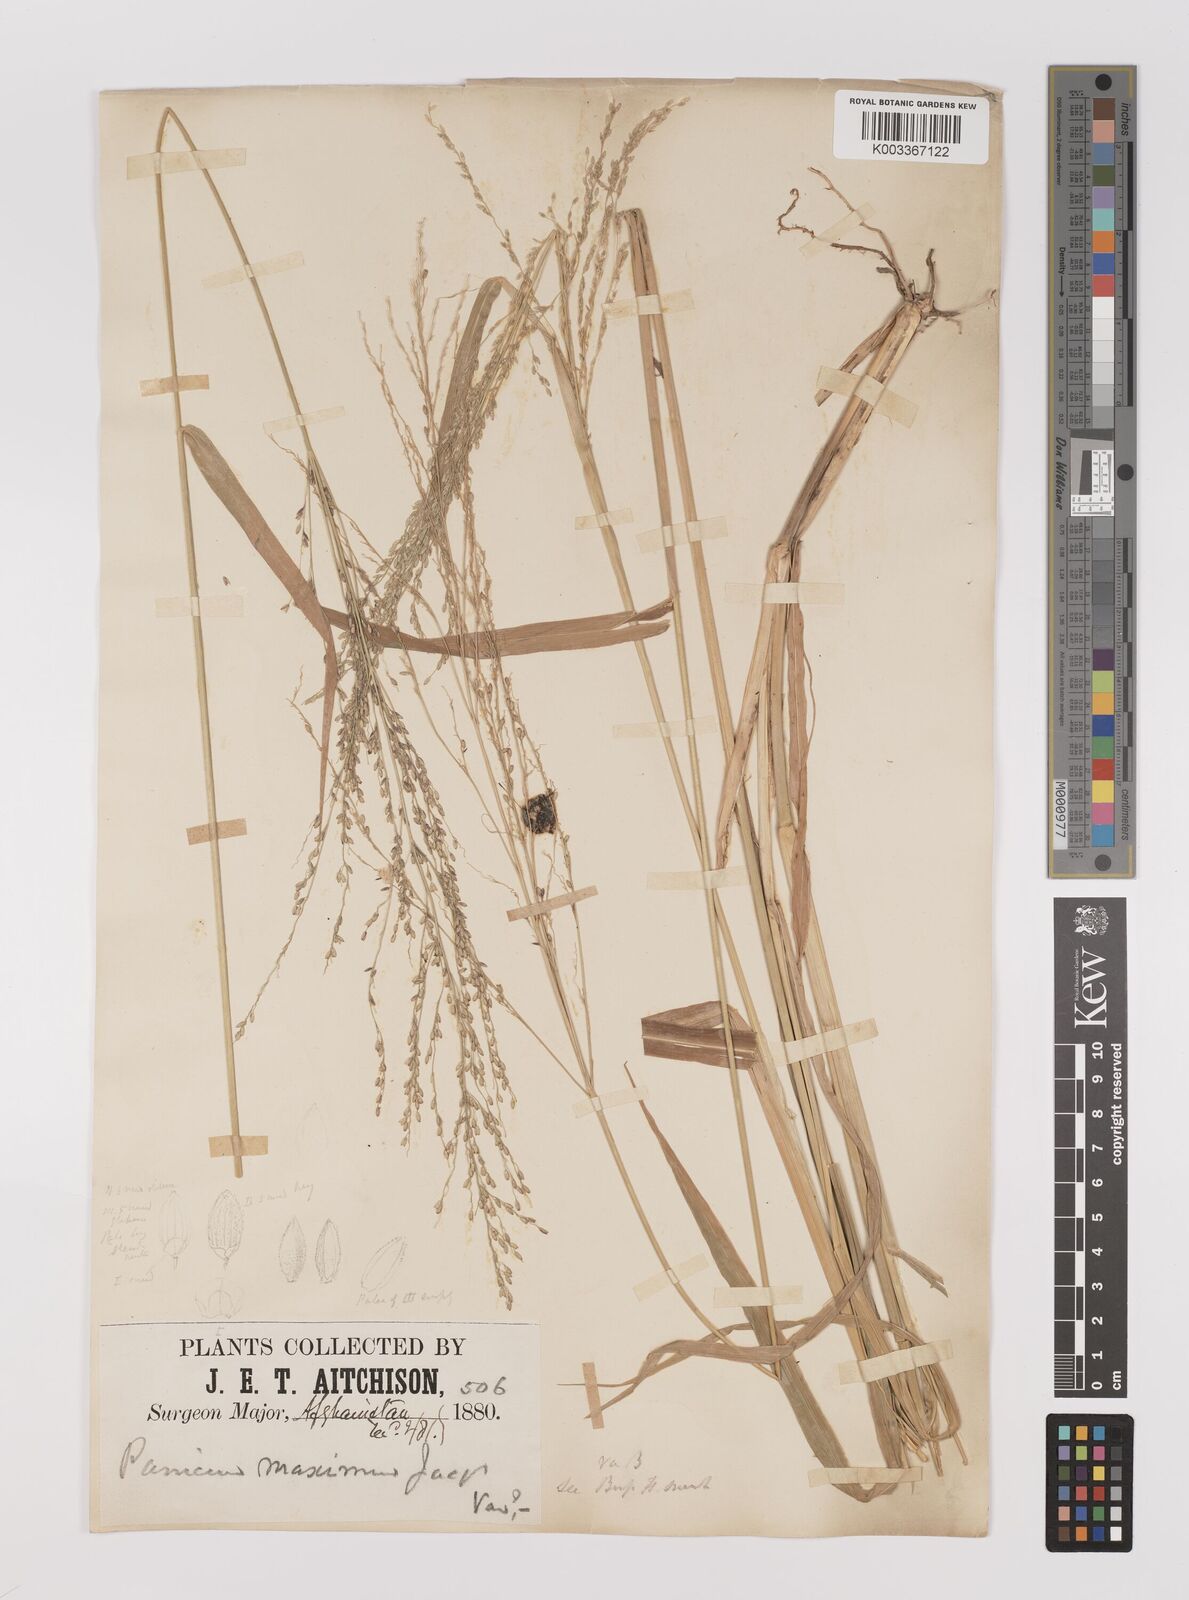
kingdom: Plantae
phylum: Tracheophyta
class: Liliopsida
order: Poales
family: Poaceae
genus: Megathyrsus
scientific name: Megathyrsus maximus
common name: Guineagrass
